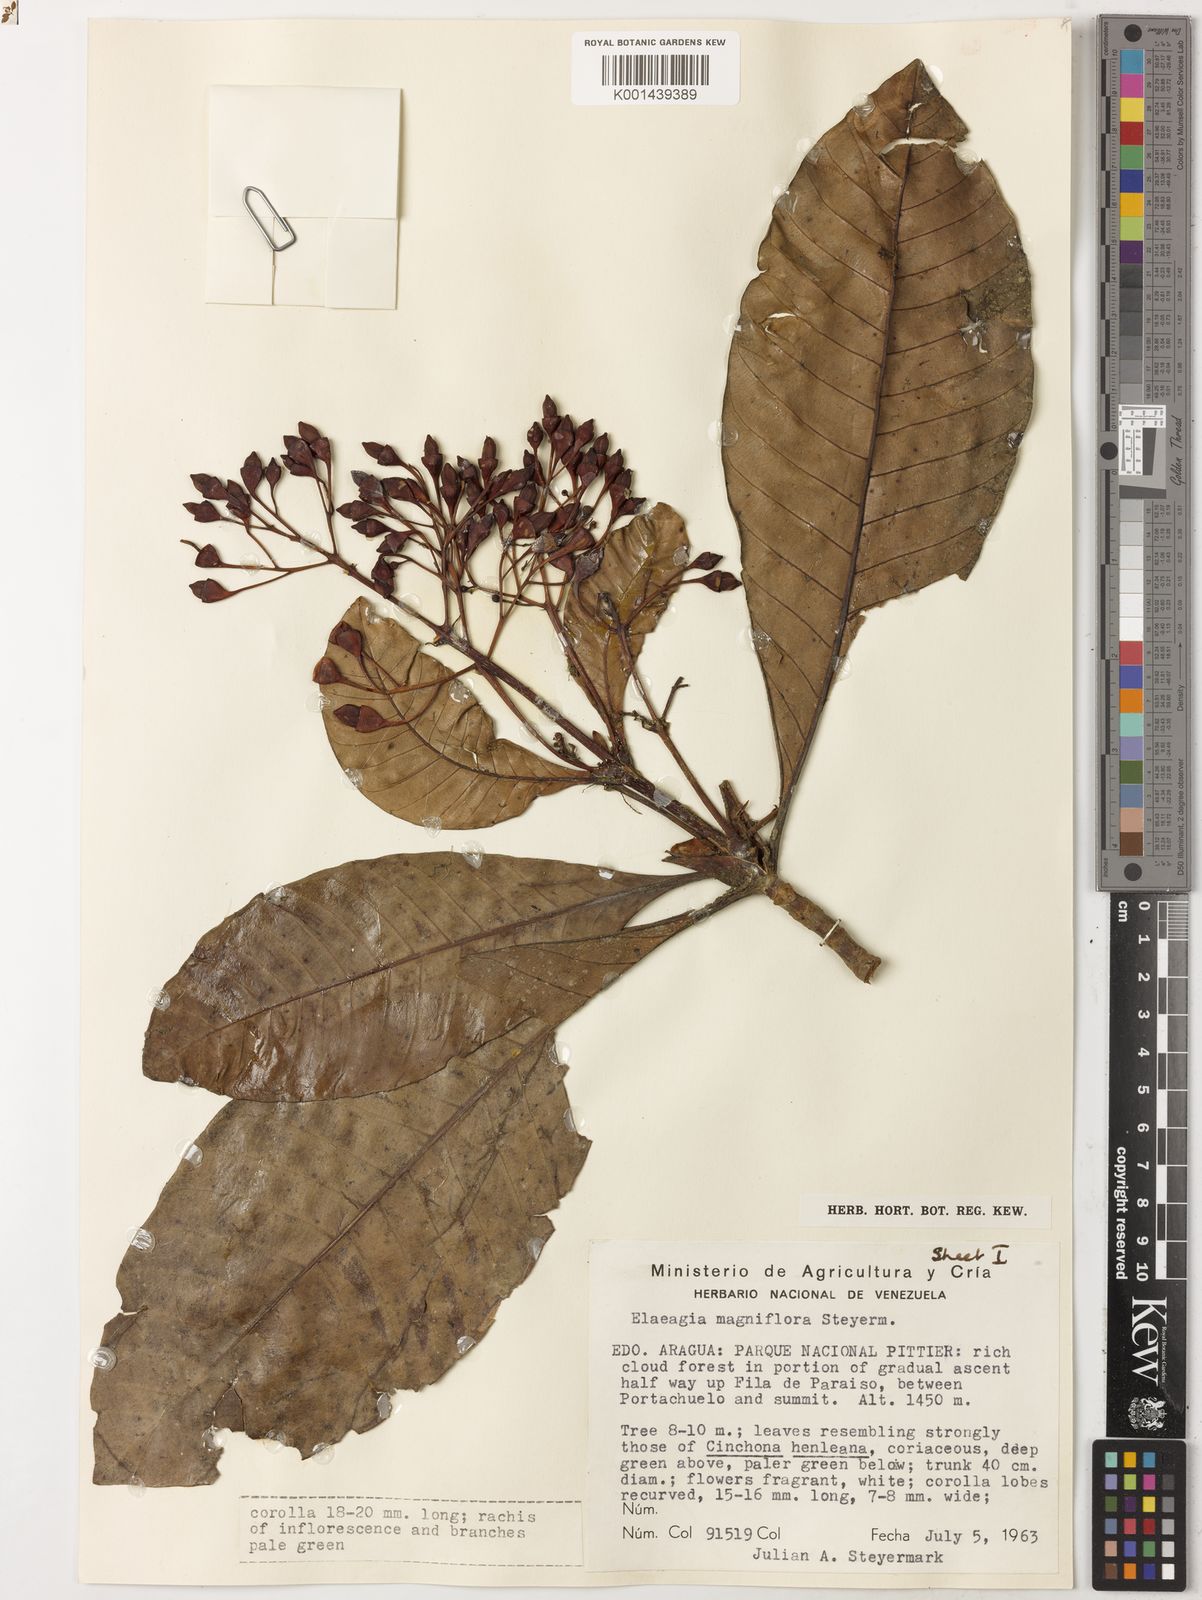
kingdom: Plantae
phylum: Tracheophyta
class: Magnoliopsida
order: Gentianales
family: Rubiaceae
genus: Elaeagia
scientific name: Elaeagia magniflora
